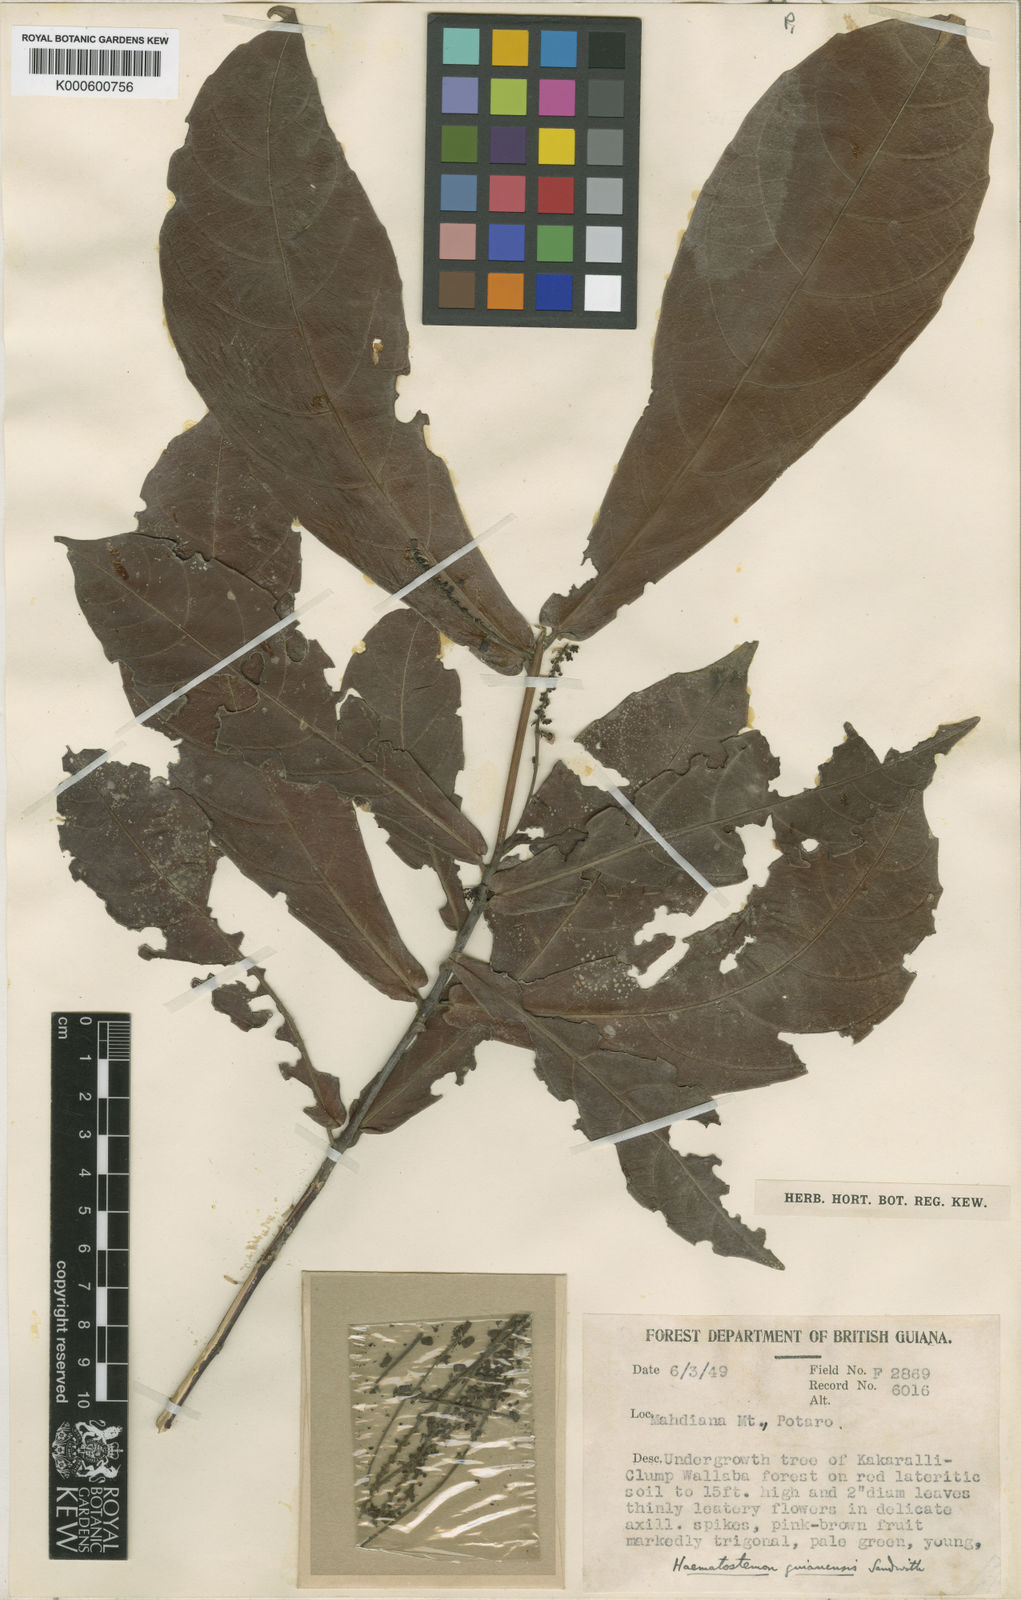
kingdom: Plantae
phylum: Tracheophyta
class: Magnoliopsida
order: Malpighiales
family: Euphorbiaceae
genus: Haematostemon
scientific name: Haematostemon guianensis
